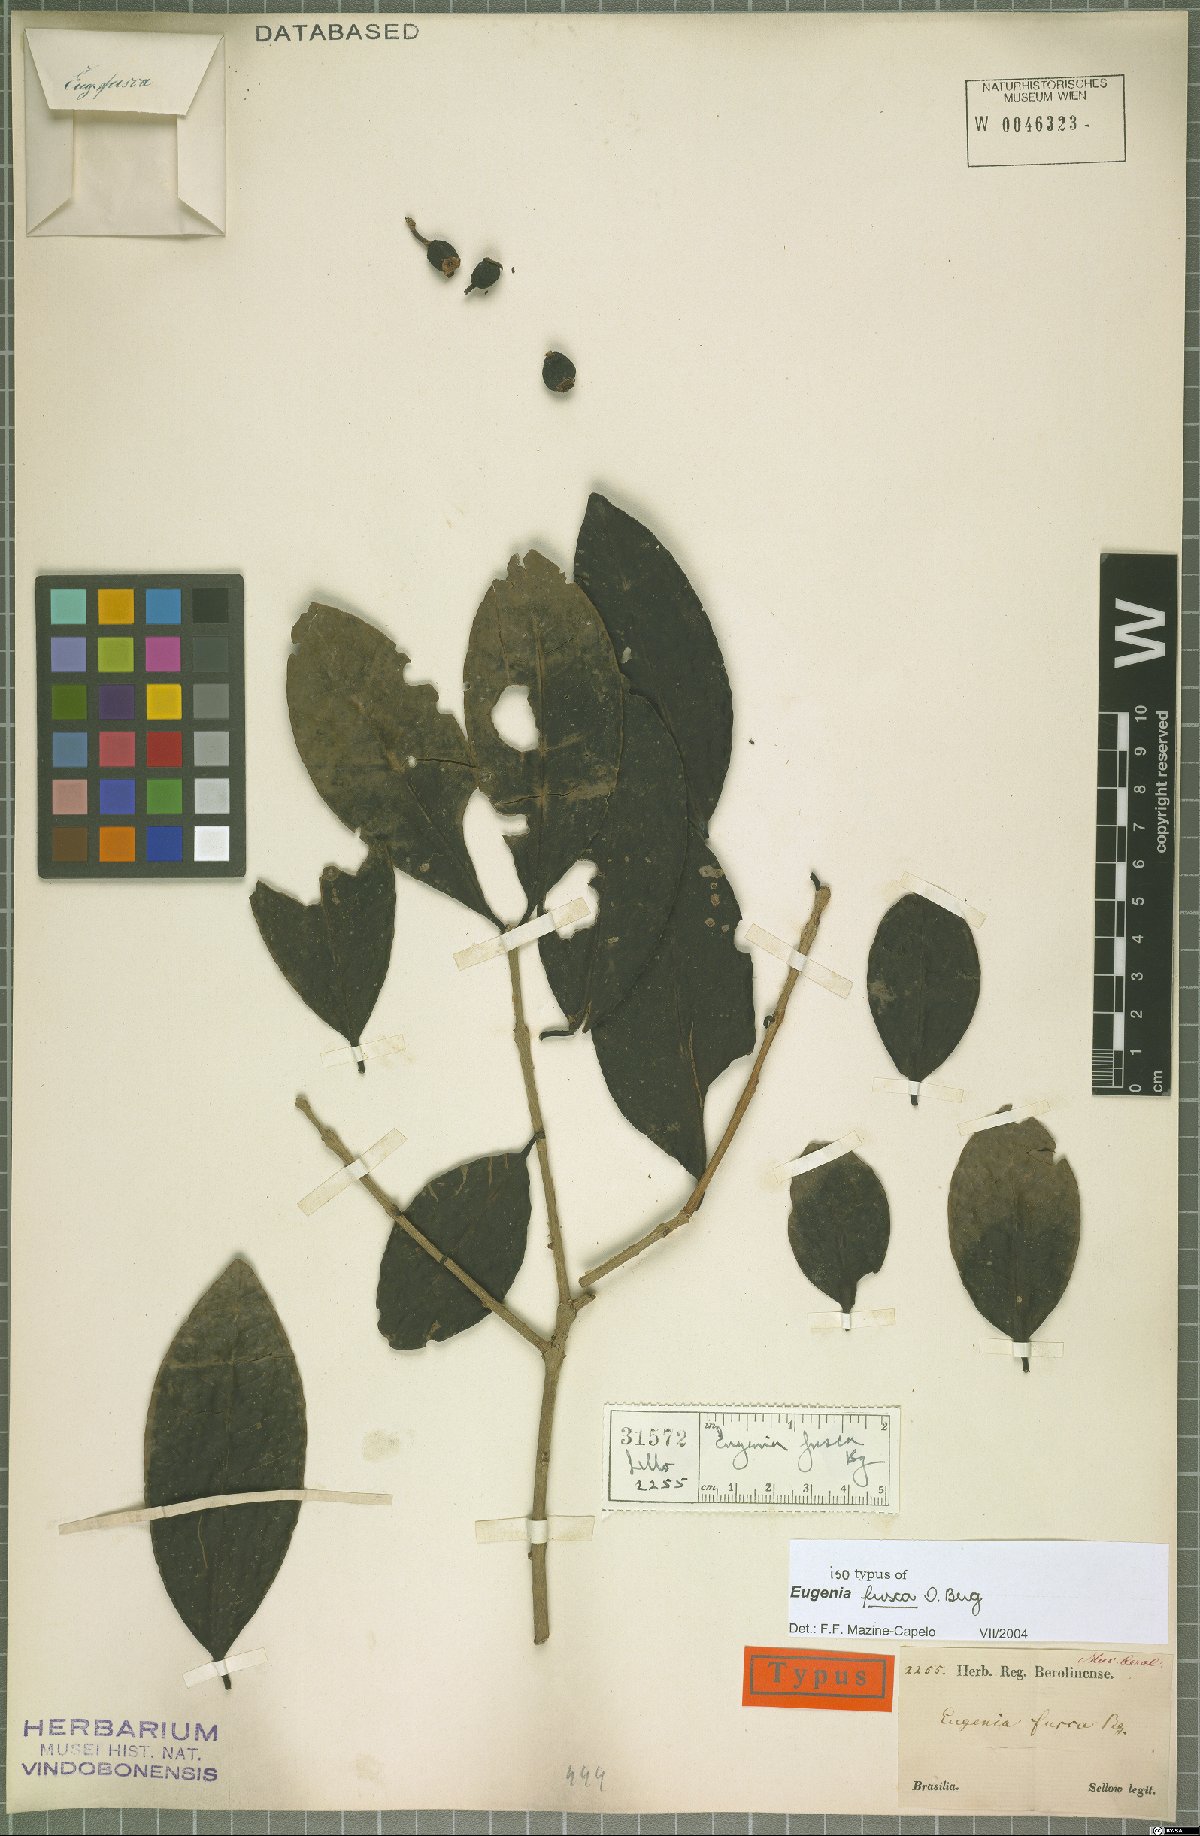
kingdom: Plantae
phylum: Tracheophyta
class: Magnoliopsida
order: Myrtales
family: Myrtaceae
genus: Eugenia
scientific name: Eugenia fusca
